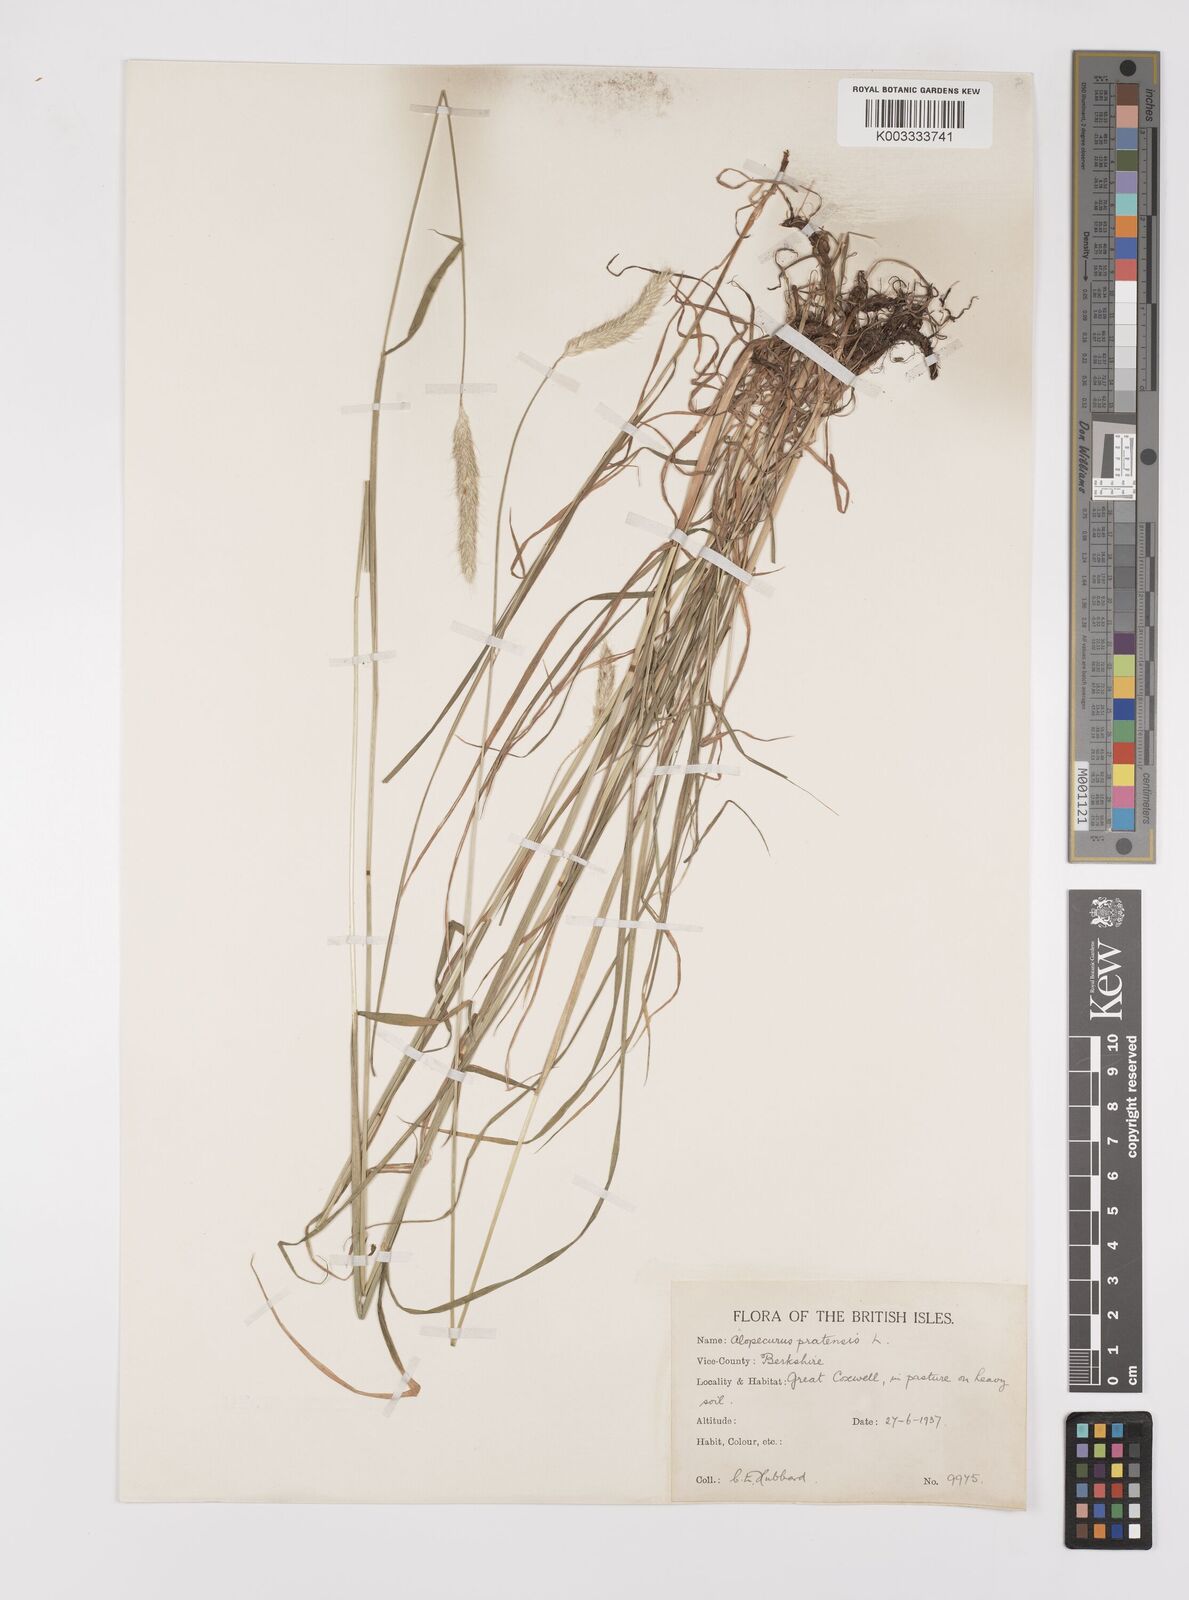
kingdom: Plantae
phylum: Tracheophyta
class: Liliopsida
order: Poales
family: Poaceae
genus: Alopecurus
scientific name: Alopecurus pratensis
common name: Meadow foxtail
